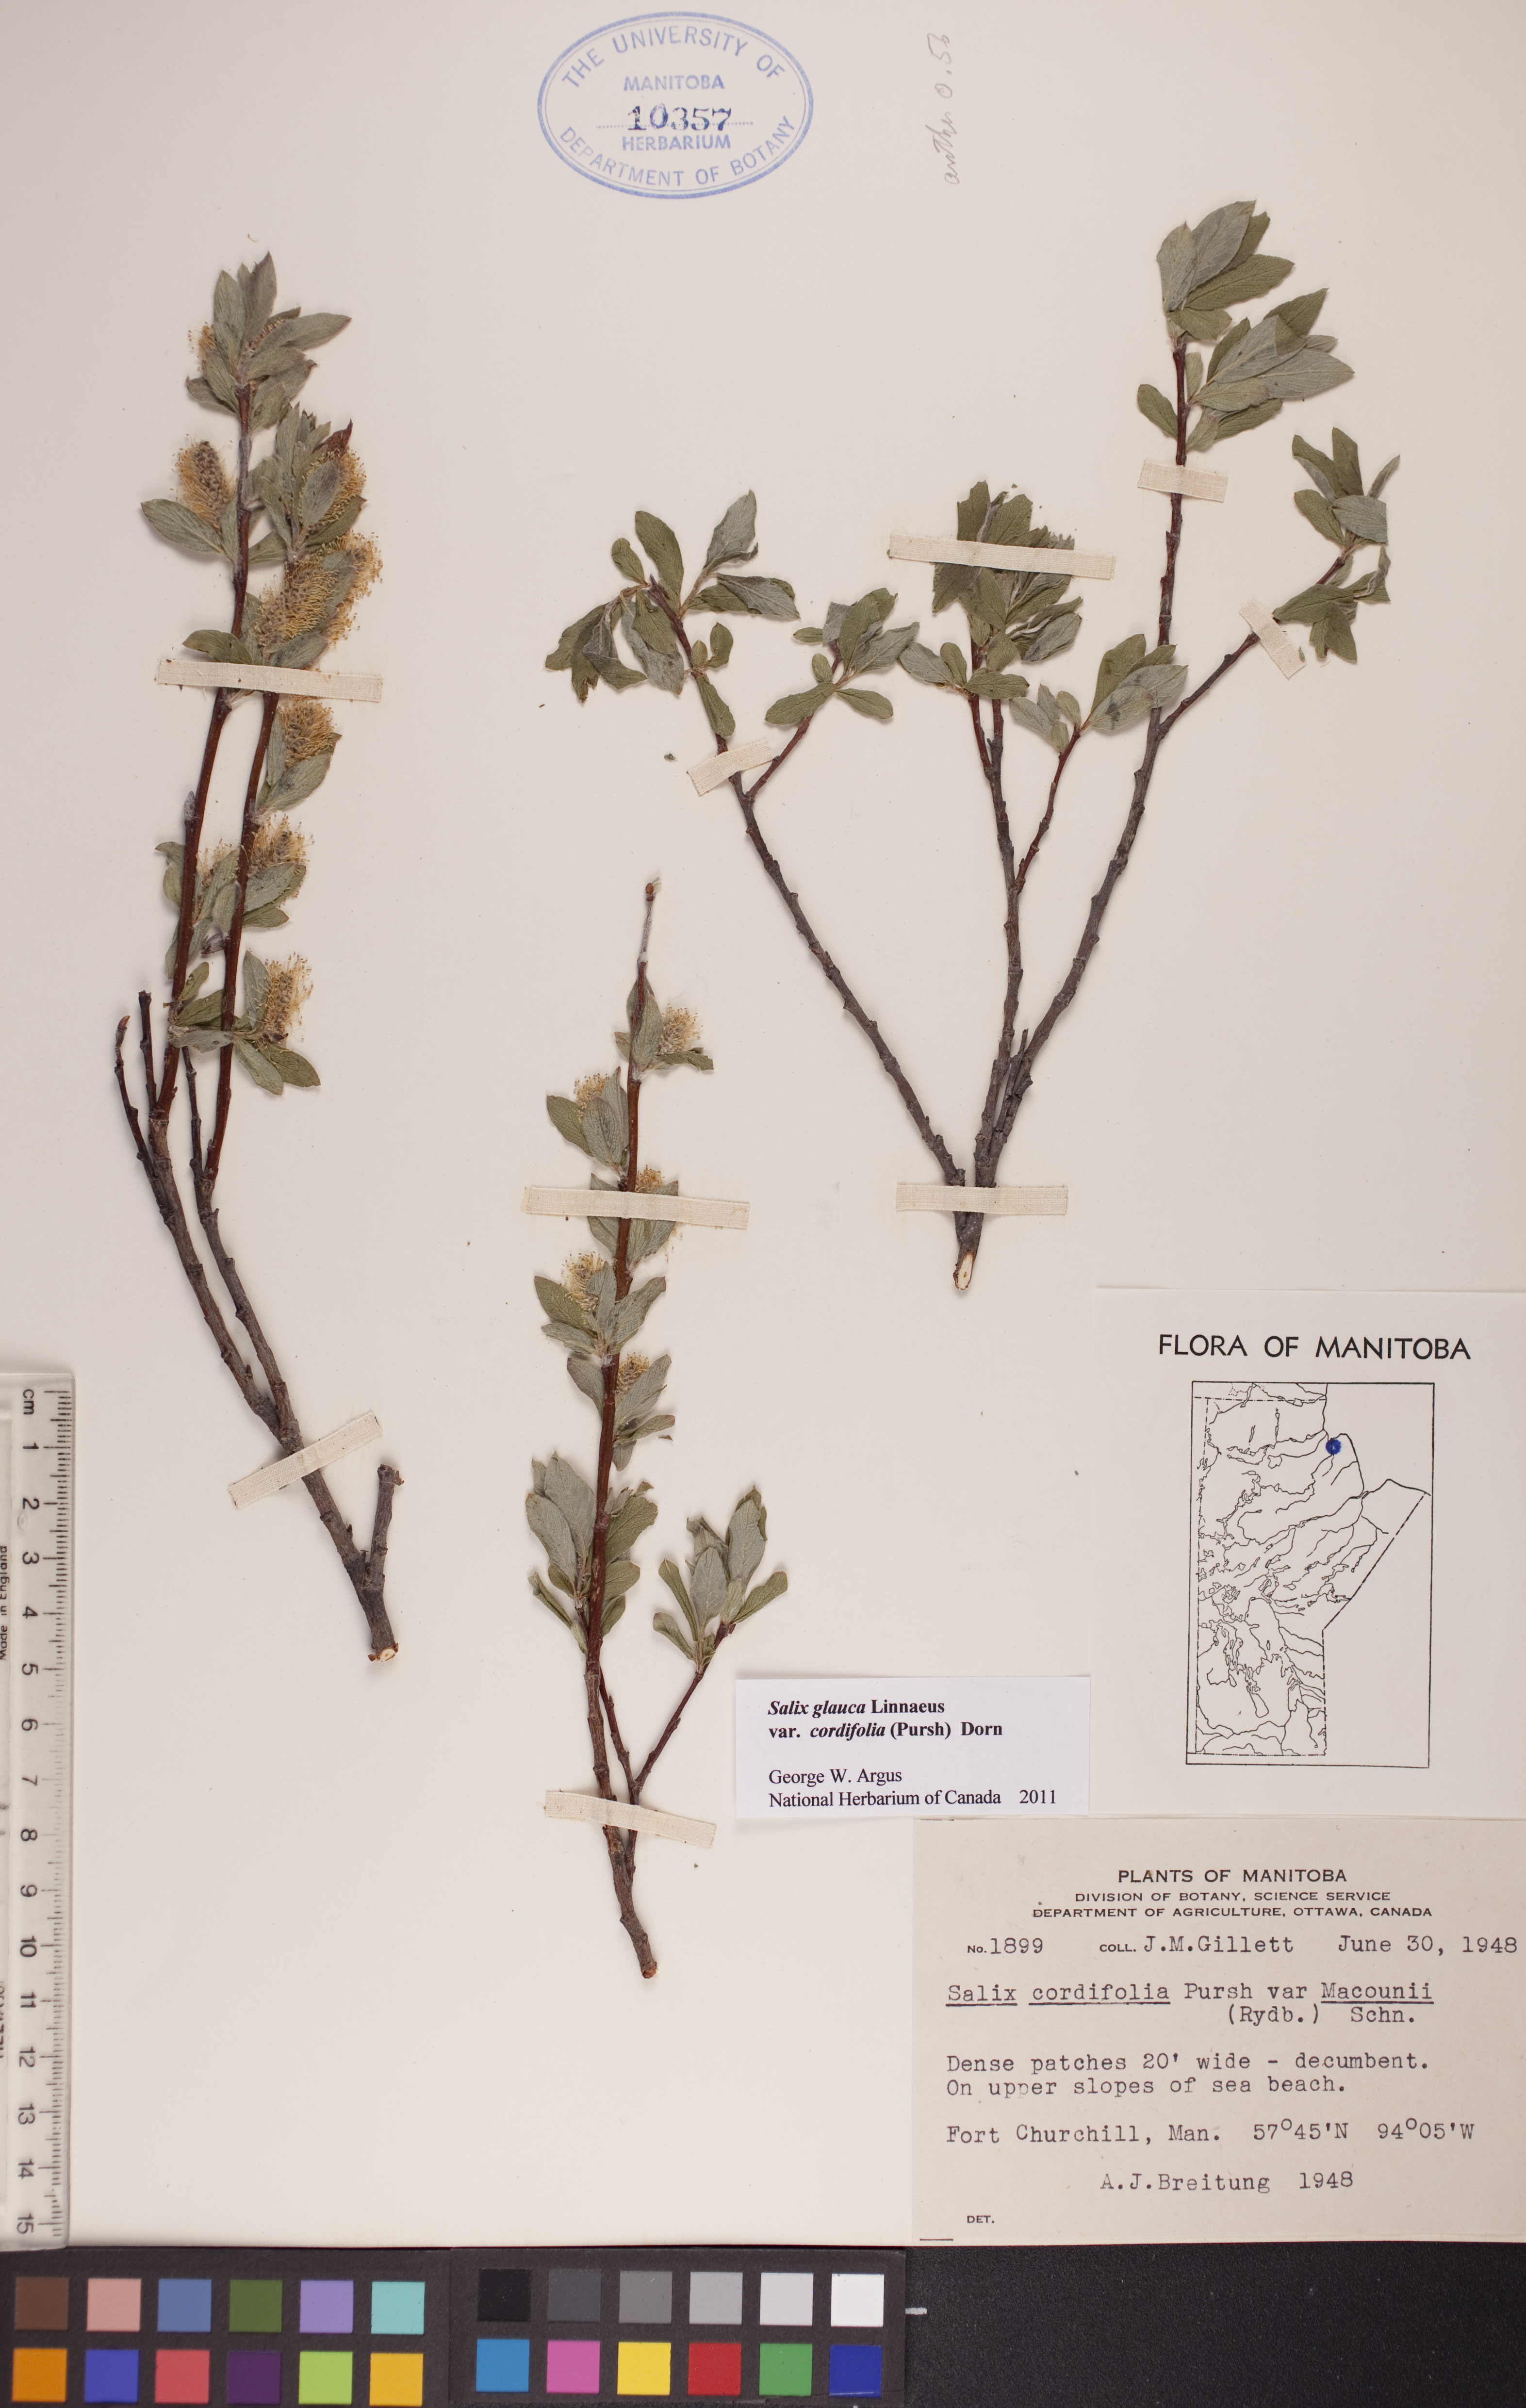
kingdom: Plantae
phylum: Tracheophyta
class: Magnoliopsida
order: Malpighiales
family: Salicaceae
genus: Salix
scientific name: Salix glauca
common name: Glaucous willow
